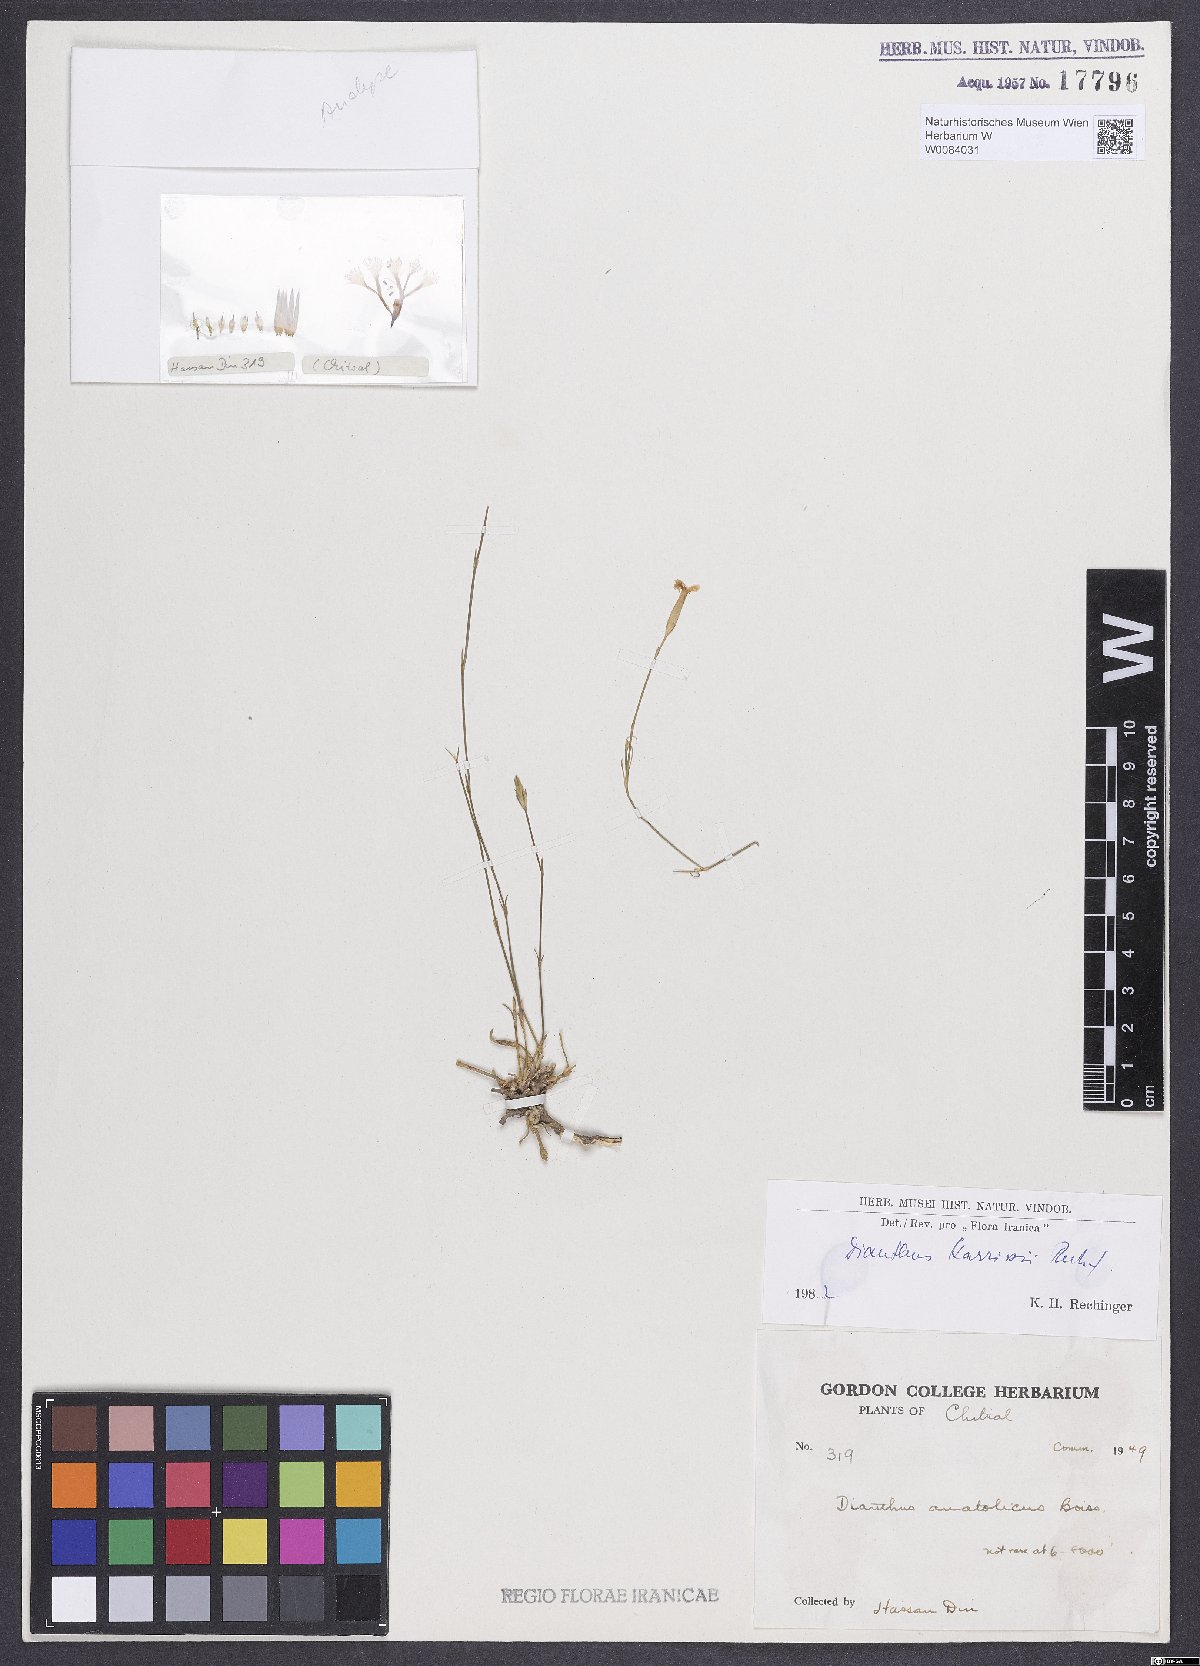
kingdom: Plantae
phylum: Tracheophyta
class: Magnoliopsida
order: Caryophyllales
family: Caryophyllaceae
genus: Dianthus
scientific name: Dianthus harrissii
